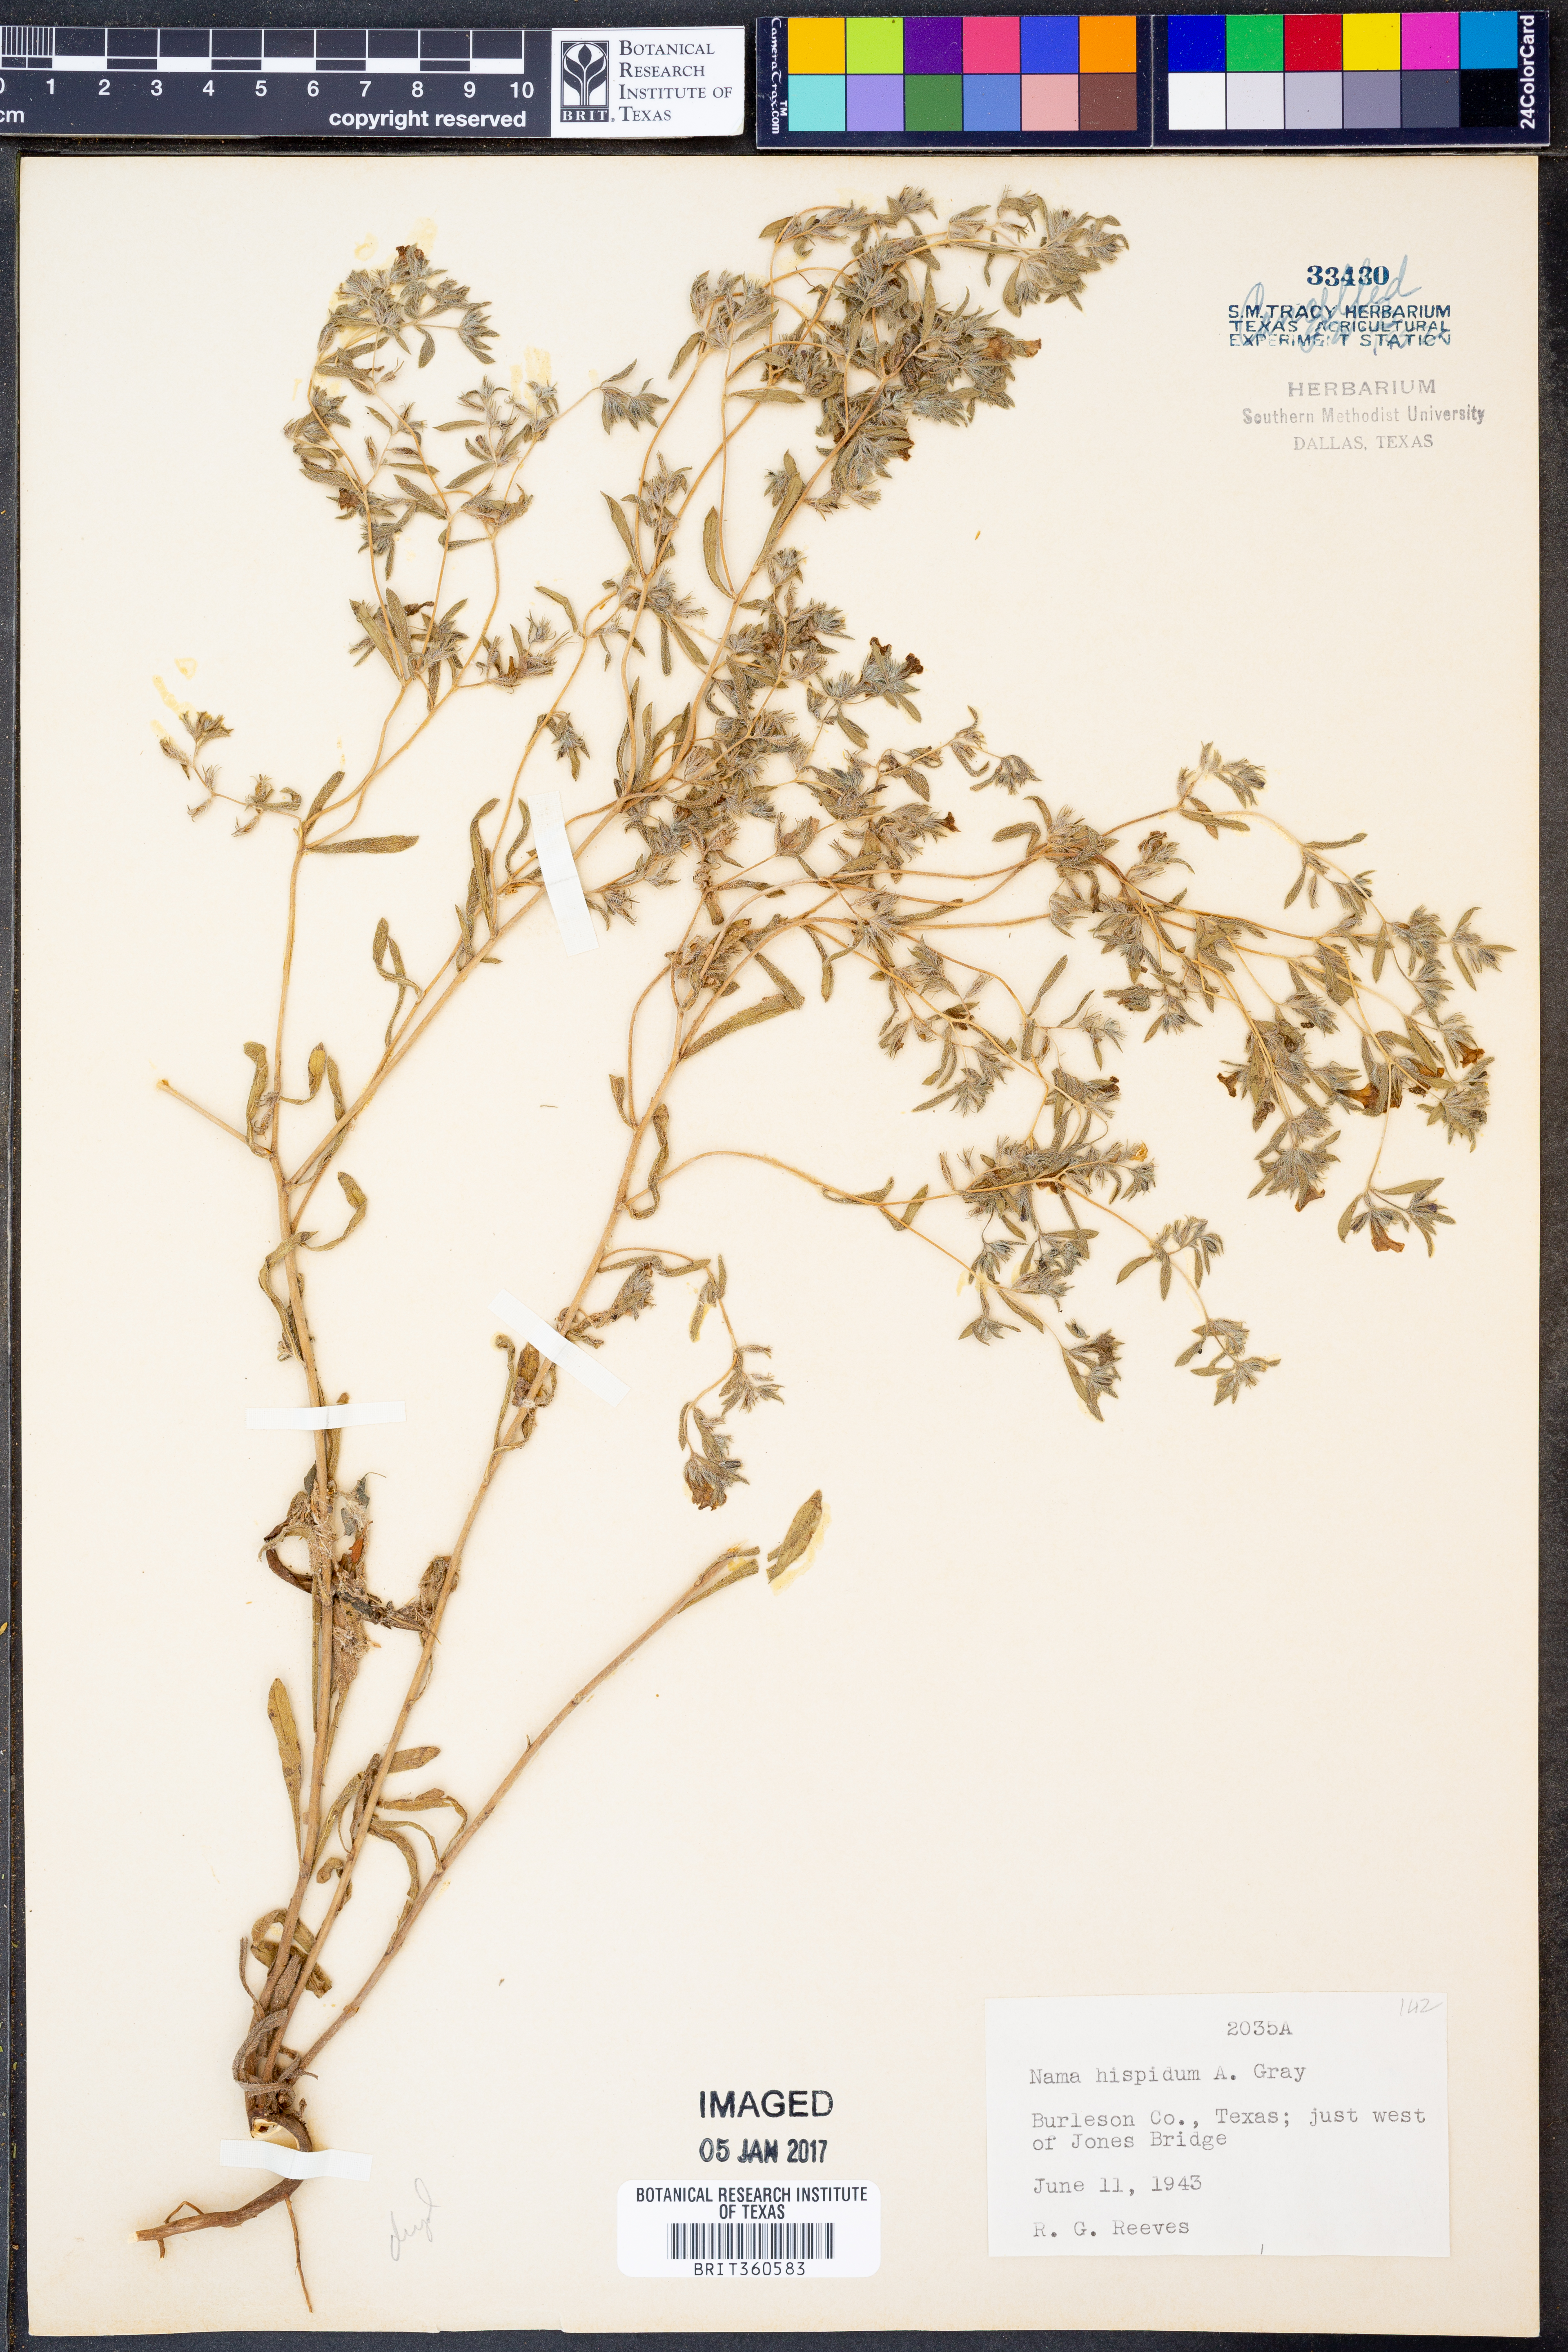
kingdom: Plantae
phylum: Tracheophyta
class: Magnoliopsida
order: Boraginales
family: Namaceae
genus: Nama
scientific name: Nama hispida
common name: Bristly nama
